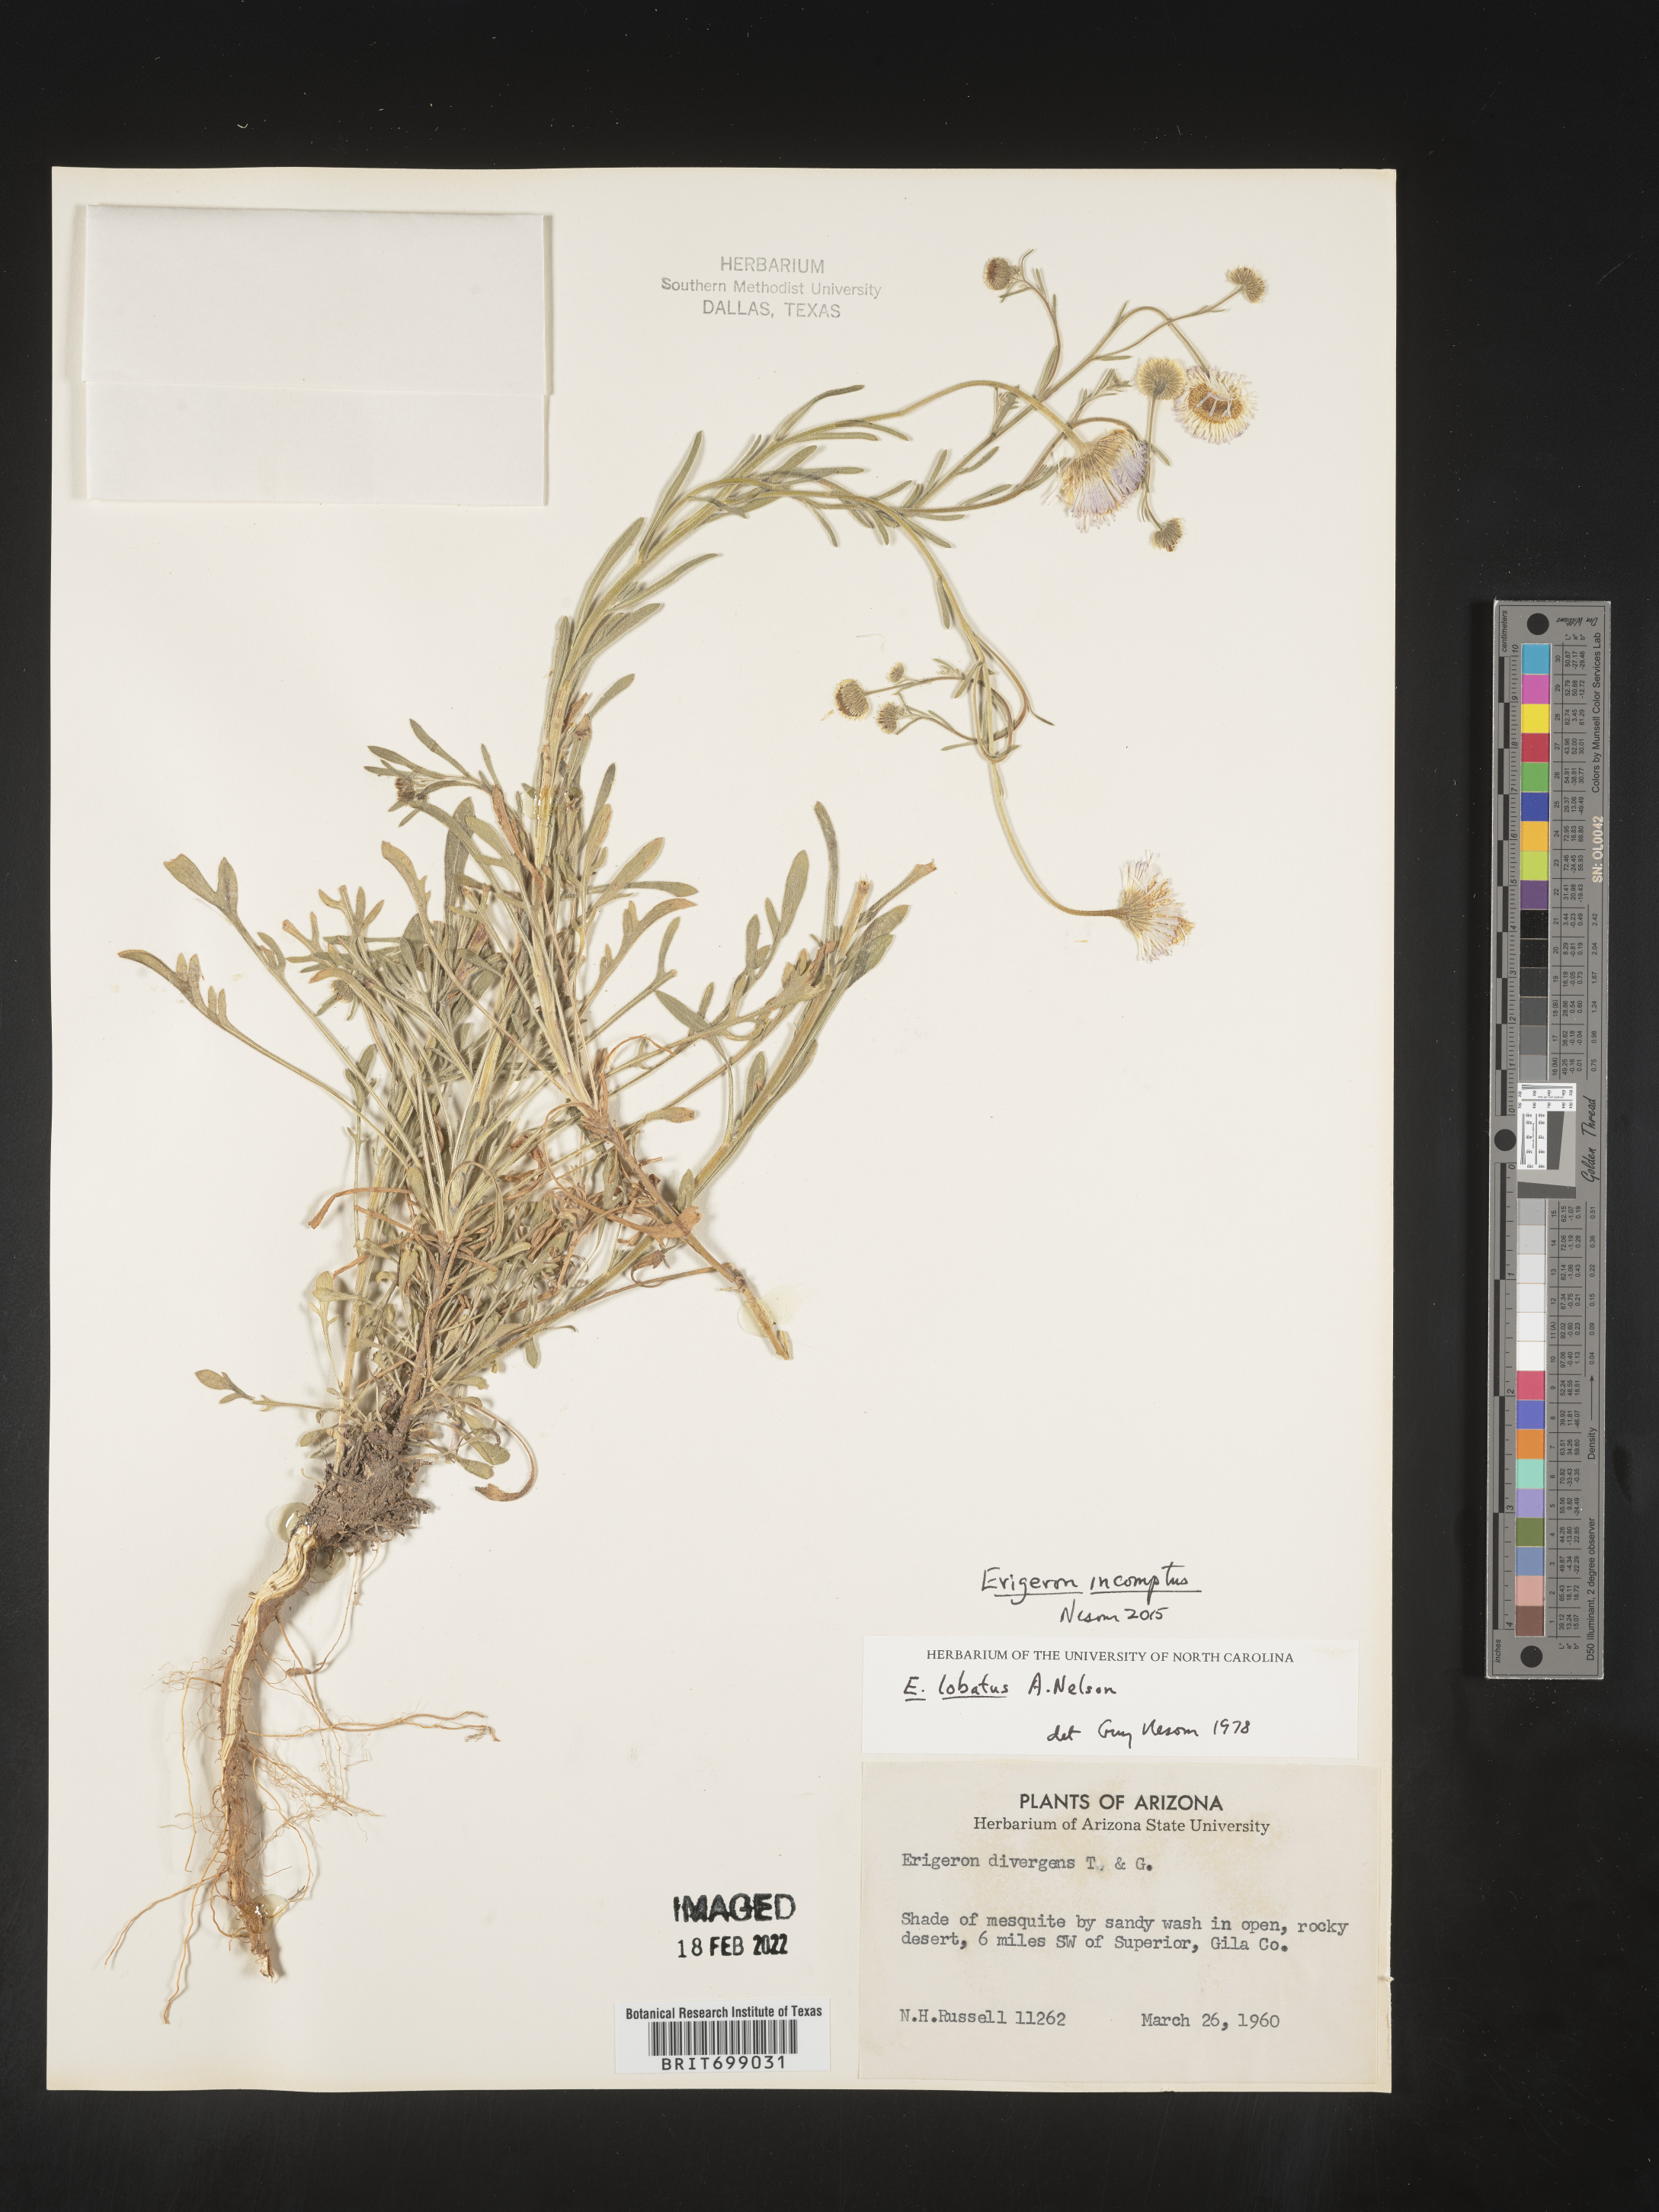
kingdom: Plantae
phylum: Tracheophyta
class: Magnoliopsida
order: Asterales
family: Asteraceae
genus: Erigeron
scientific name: Erigeron tracyi
